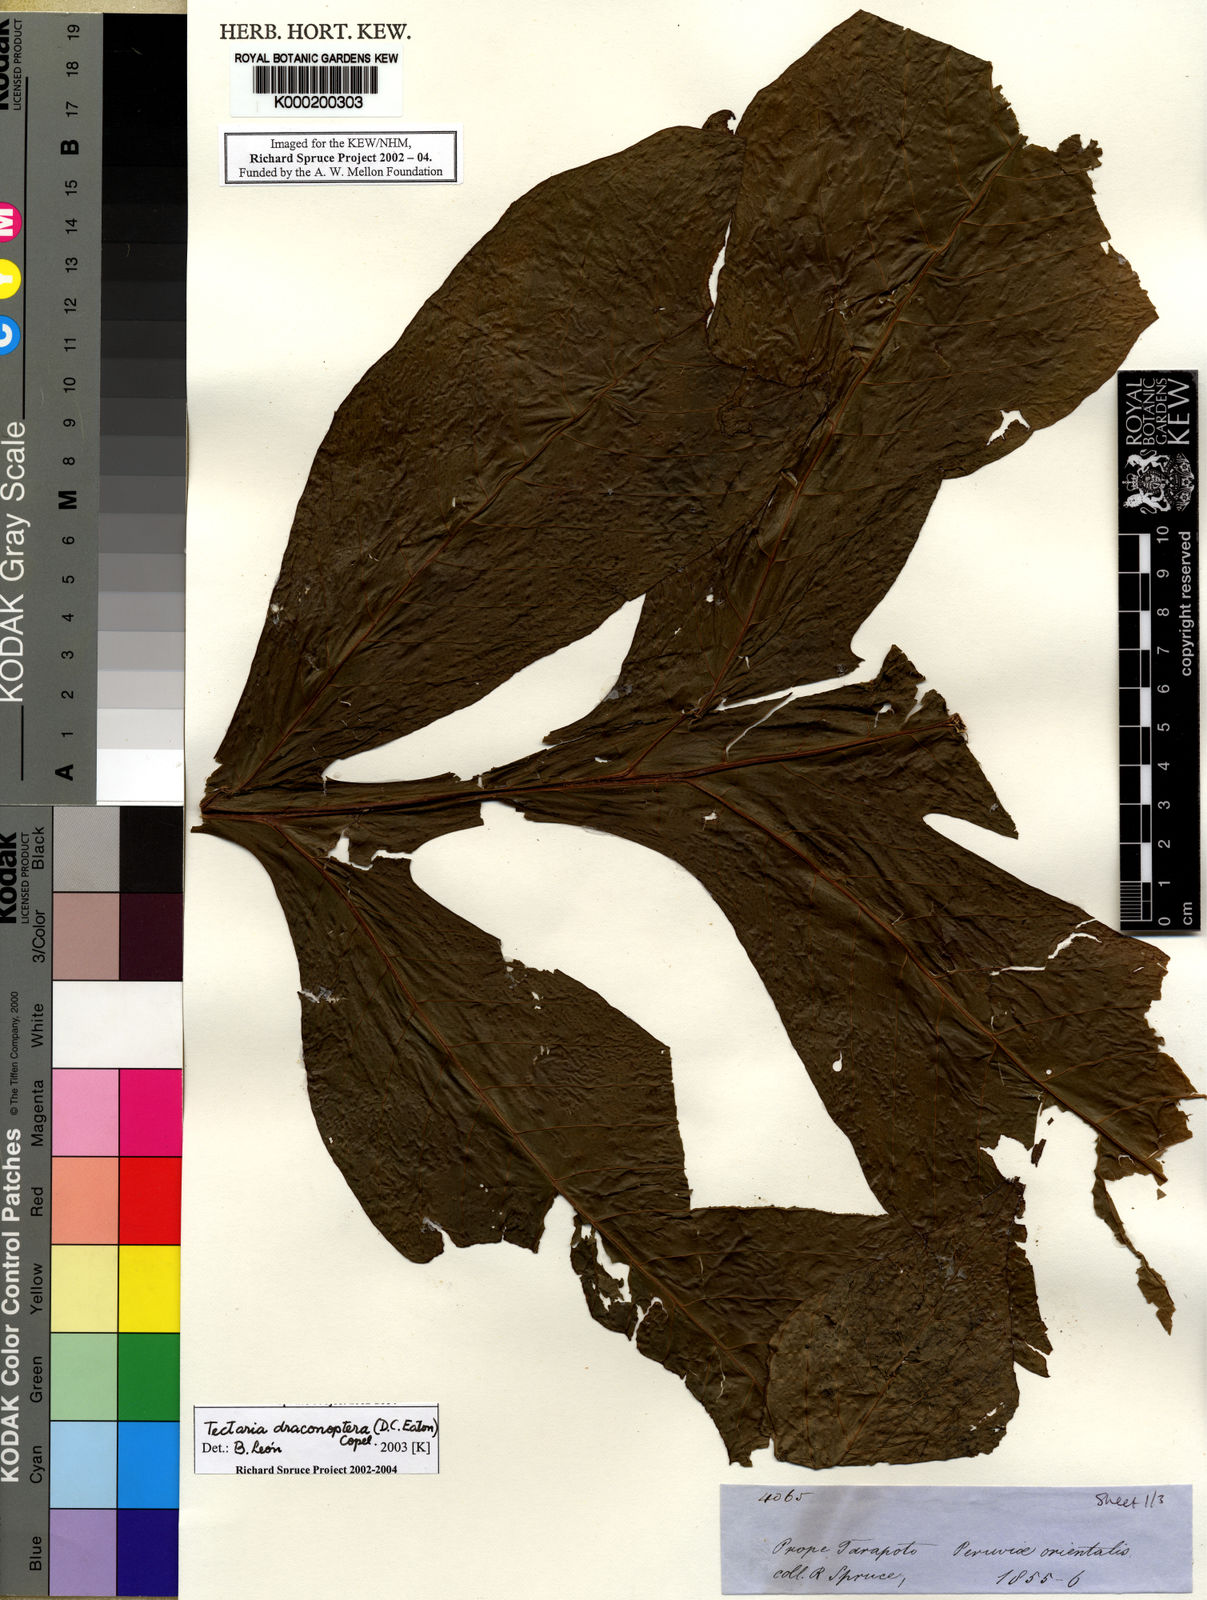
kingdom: Plantae
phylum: Tracheophyta
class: Polypodiopsida
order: Polypodiales
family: Tectariaceae
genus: Draconopteris
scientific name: Draconopteris draconoptera
